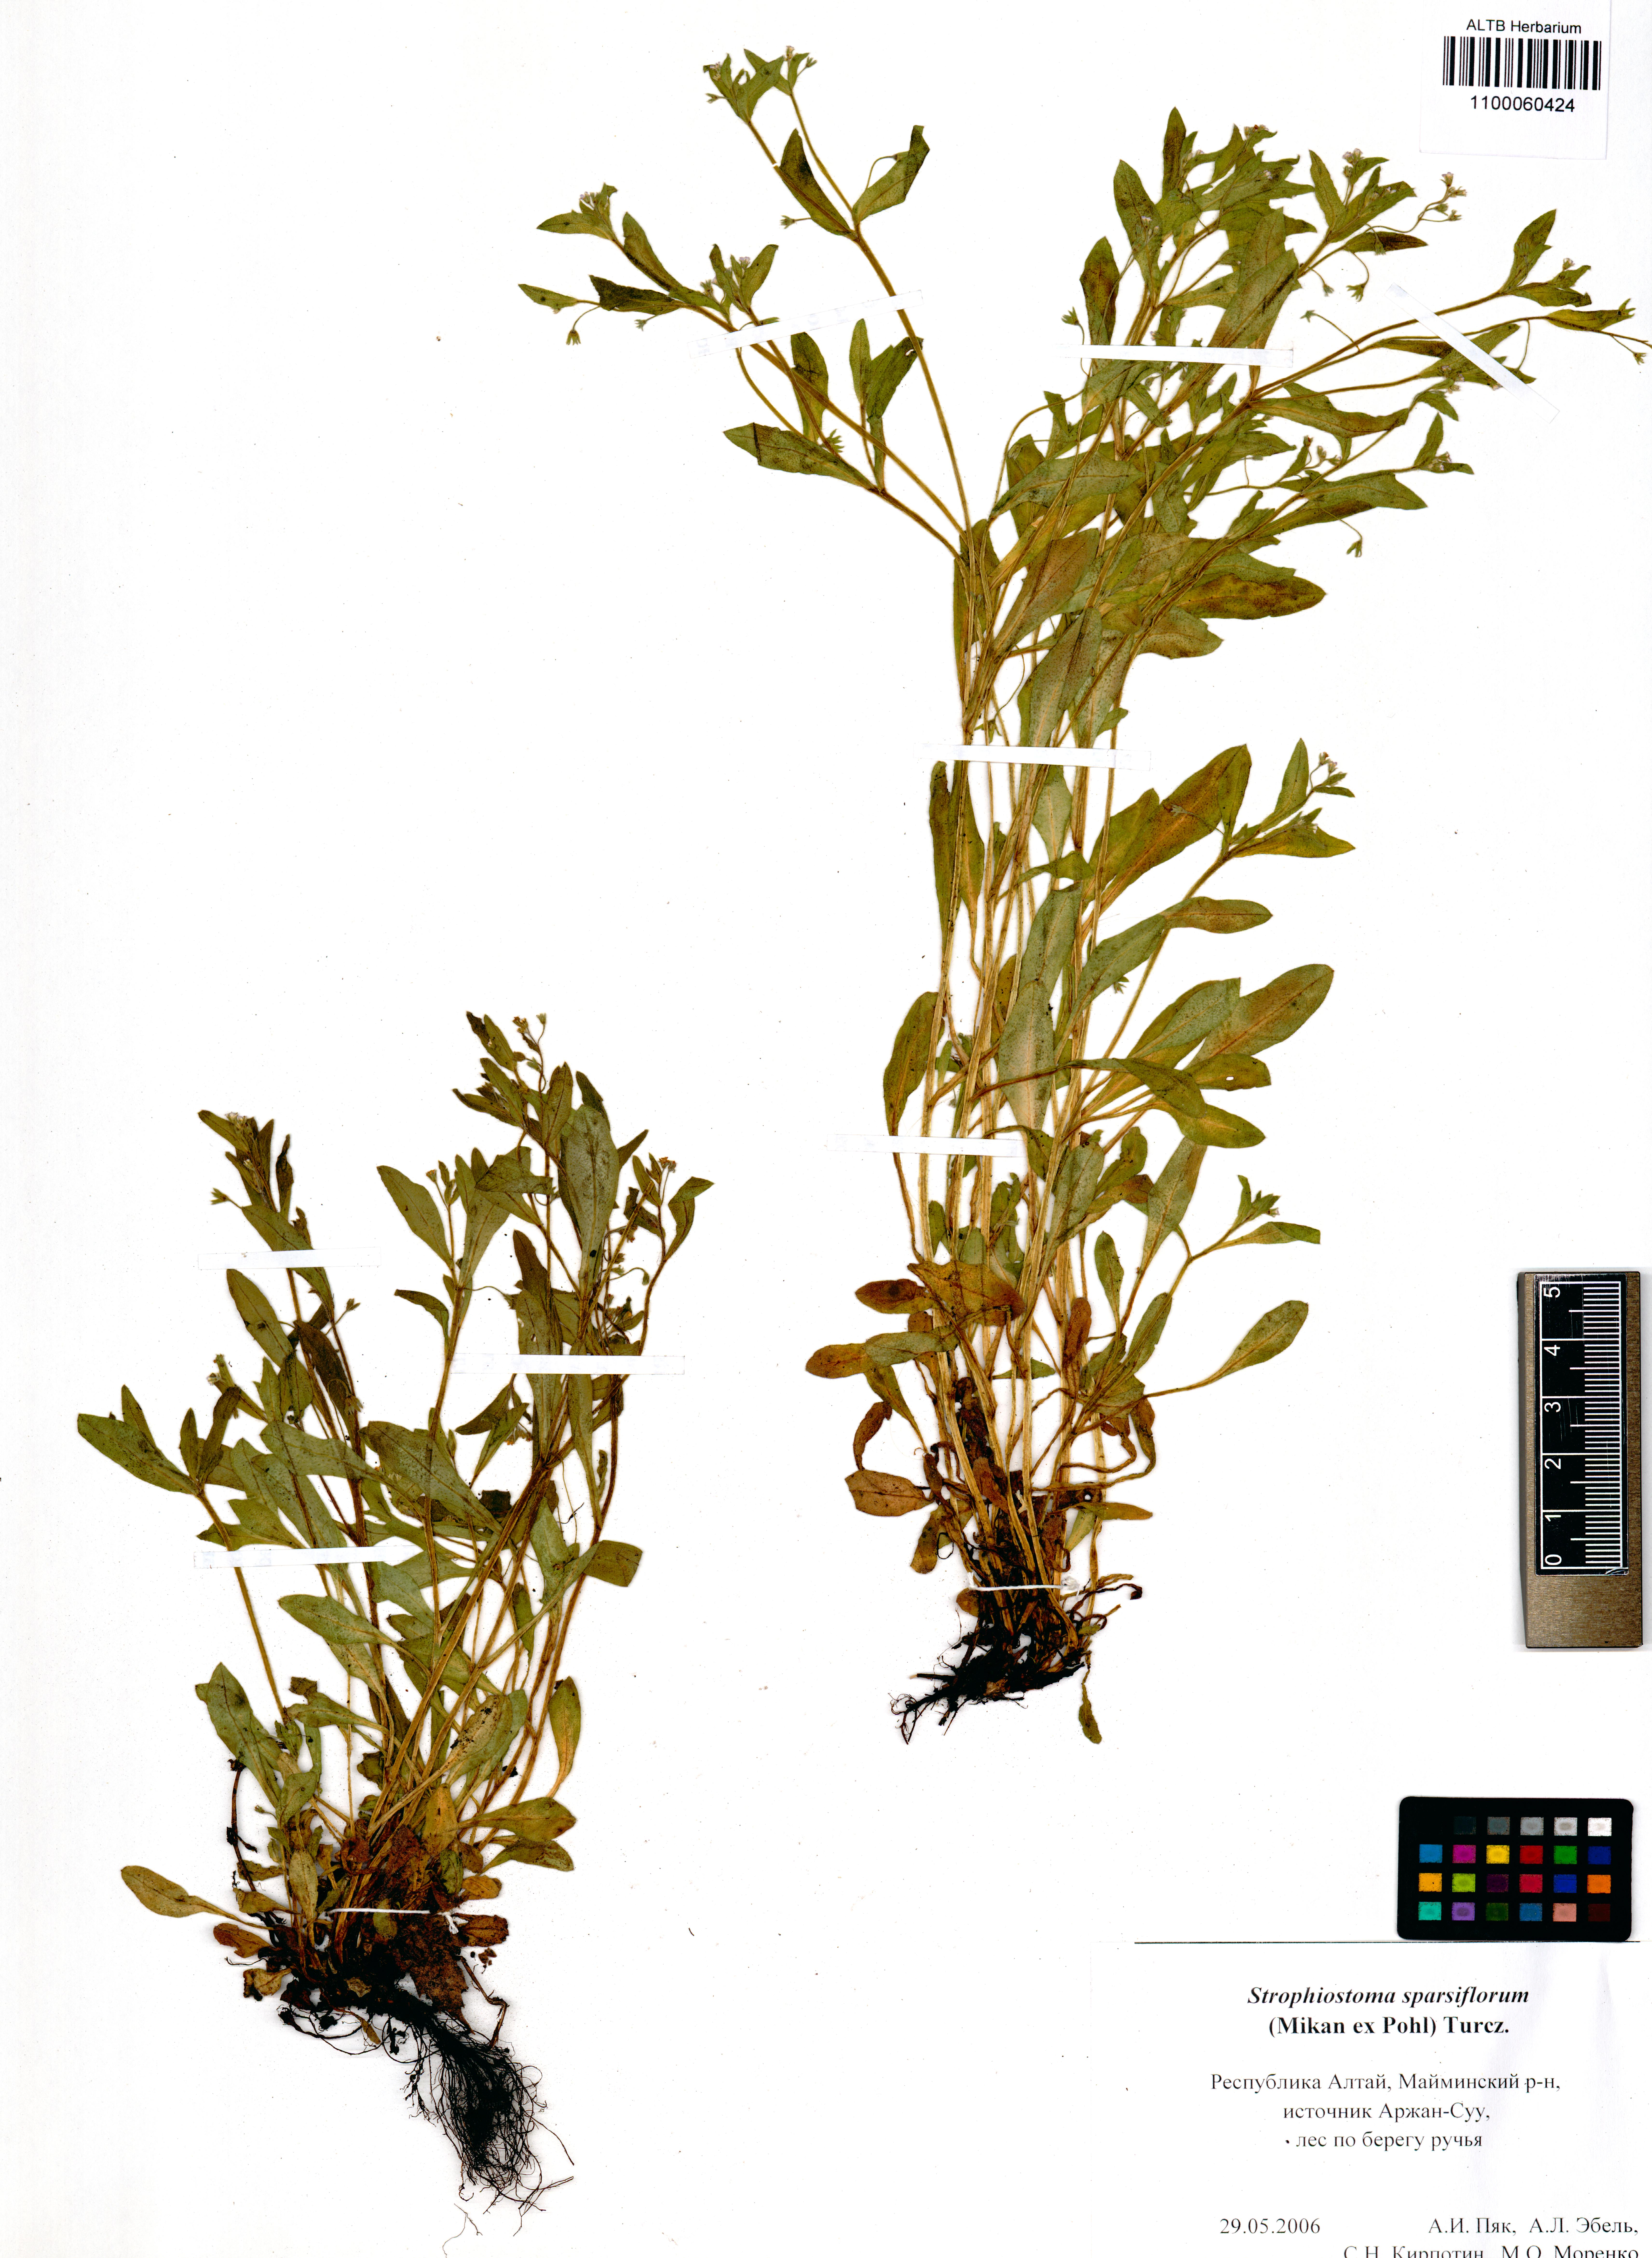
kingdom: Plantae
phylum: Tracheophyta
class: Magnoliopsida
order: Boraginales
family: Boraginaceae
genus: Myosotis
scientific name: Myosotis sparsiflora
